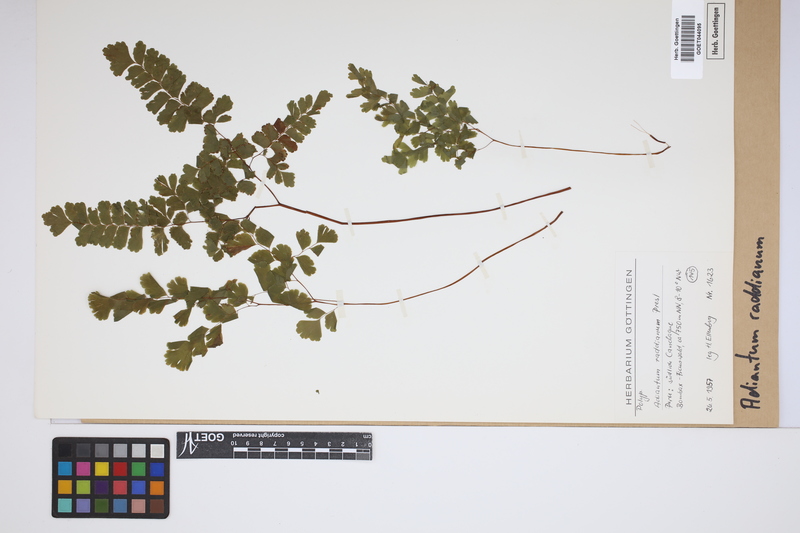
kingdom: Plantae
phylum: Tracheophyta
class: Polypodiopsida
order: Polypodiales
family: Pteridaceae
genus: Adiantum
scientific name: Adiantum raddianum
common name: Delta maidenhair fern
